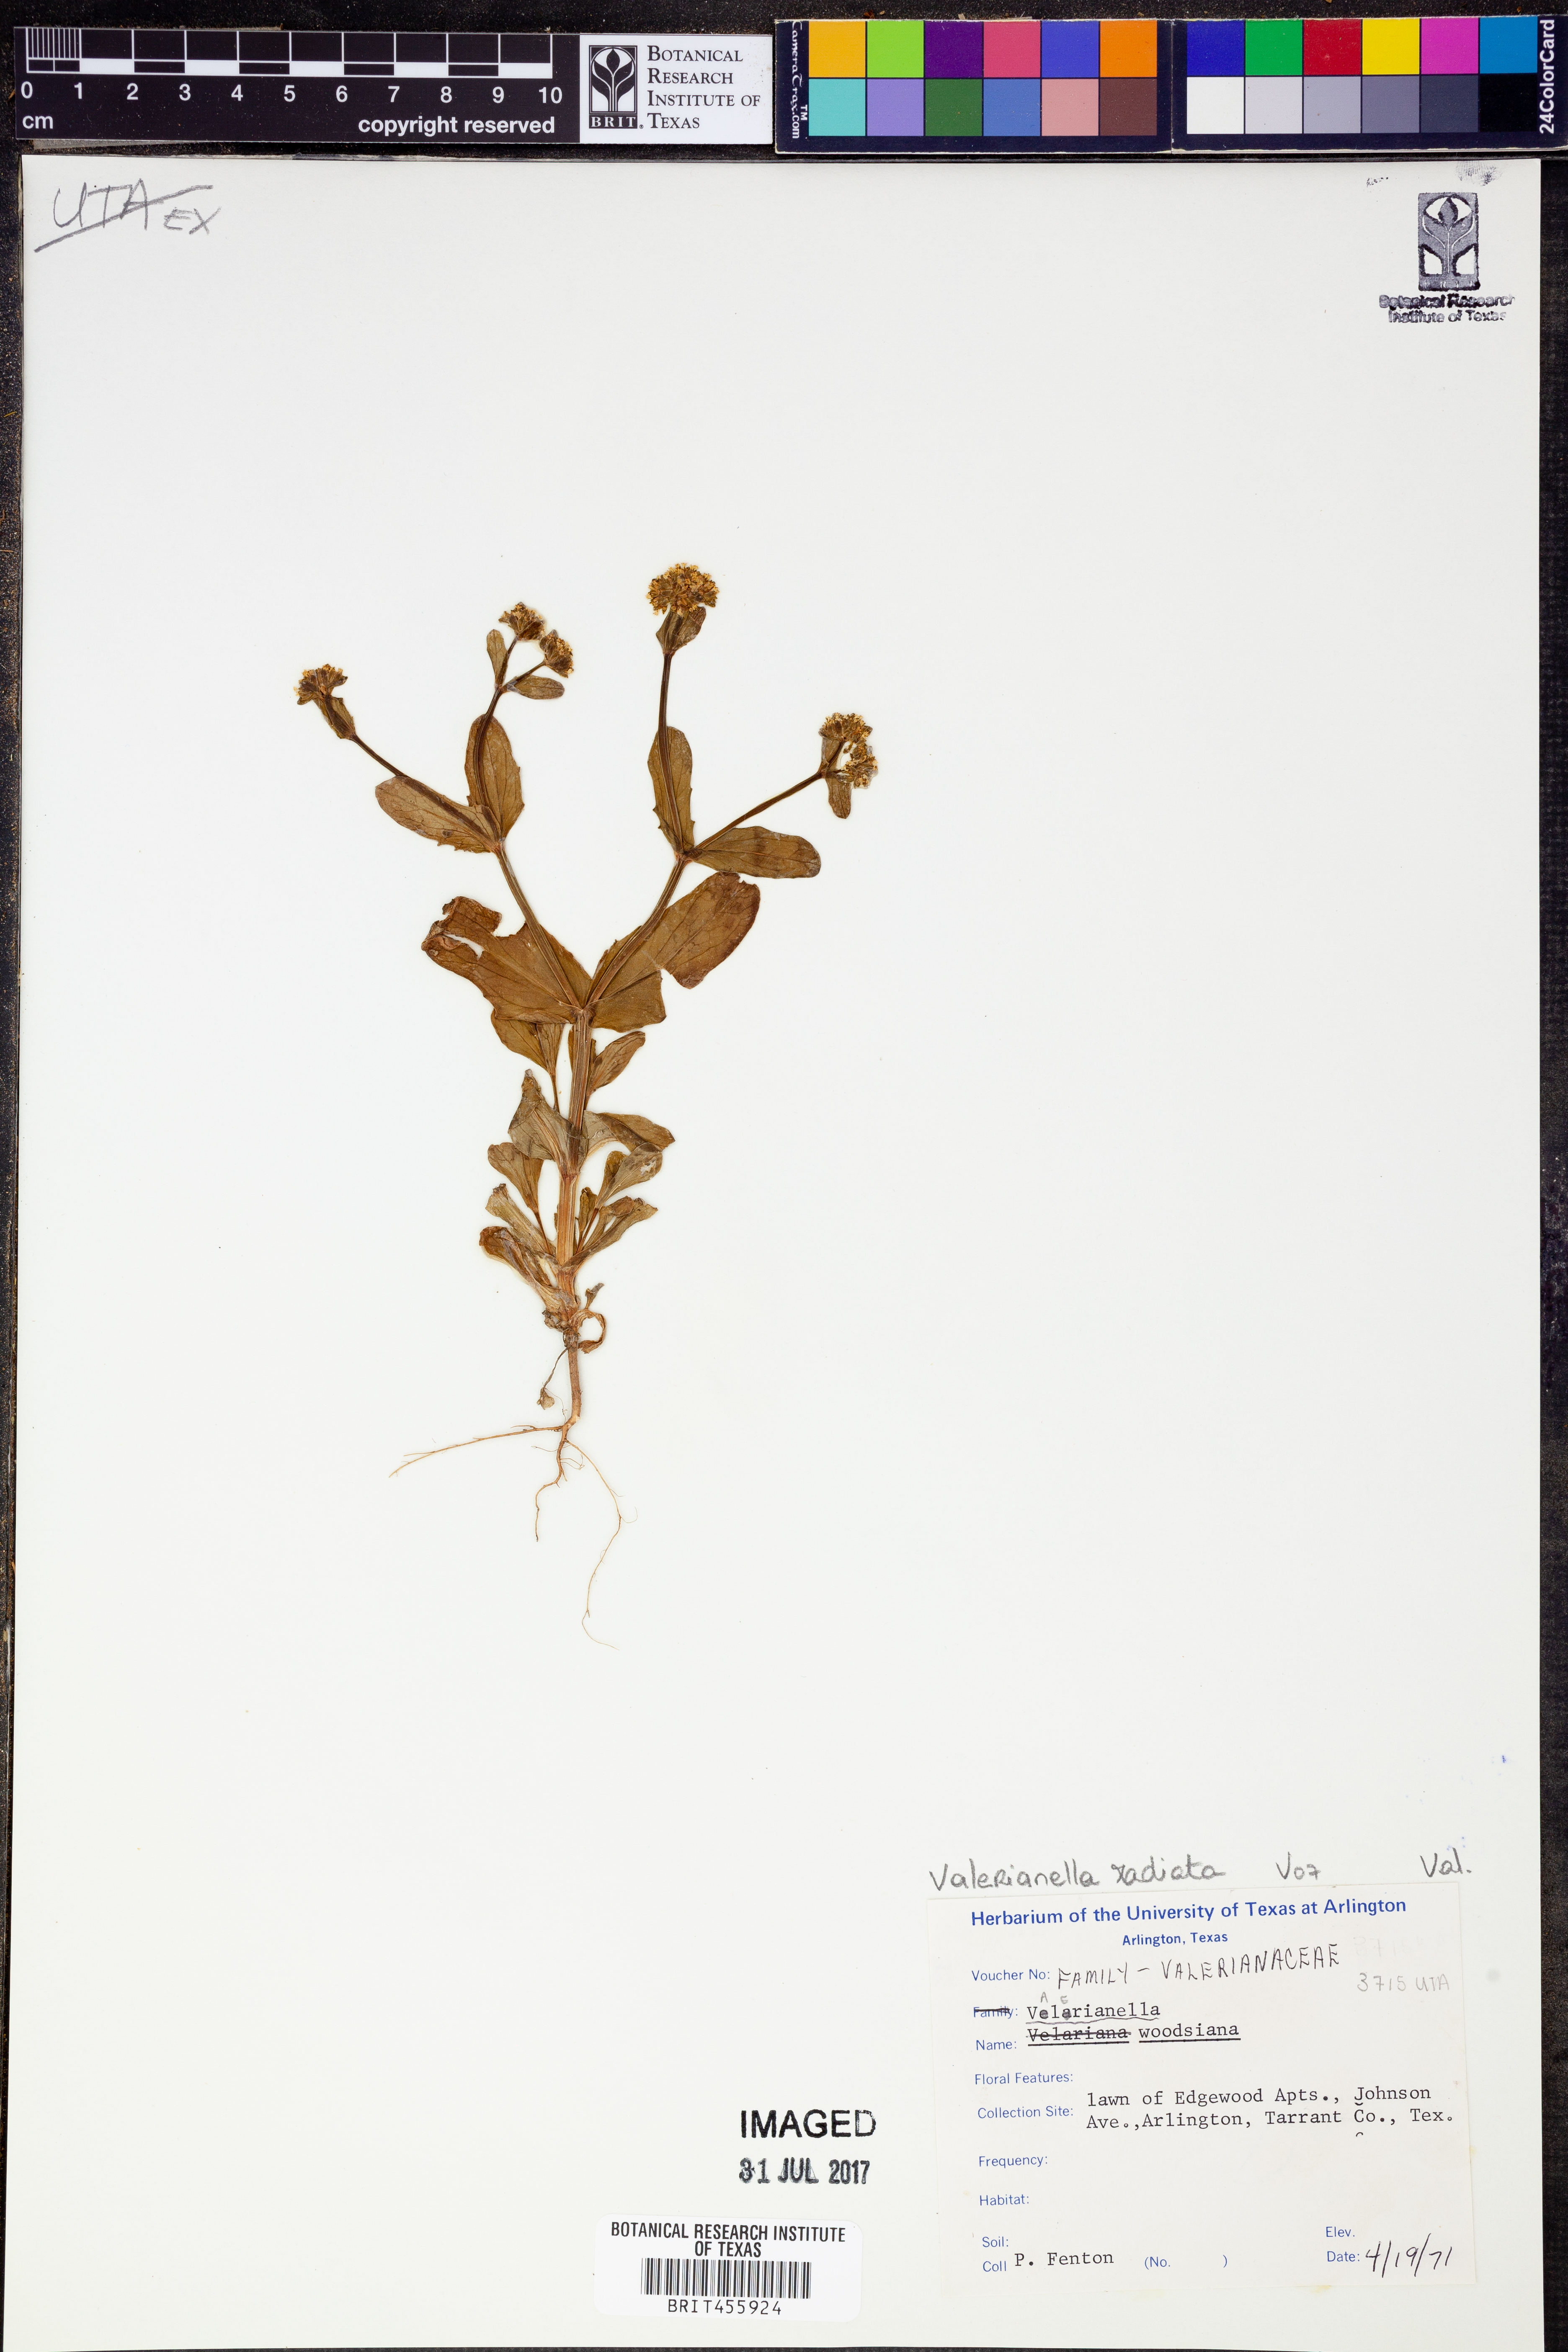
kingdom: Plantae
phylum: Tracheophyta
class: Magnoliopsida
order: Dipsacales
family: Caprifoliaceae
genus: Valerianella
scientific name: Valerianella radiata
